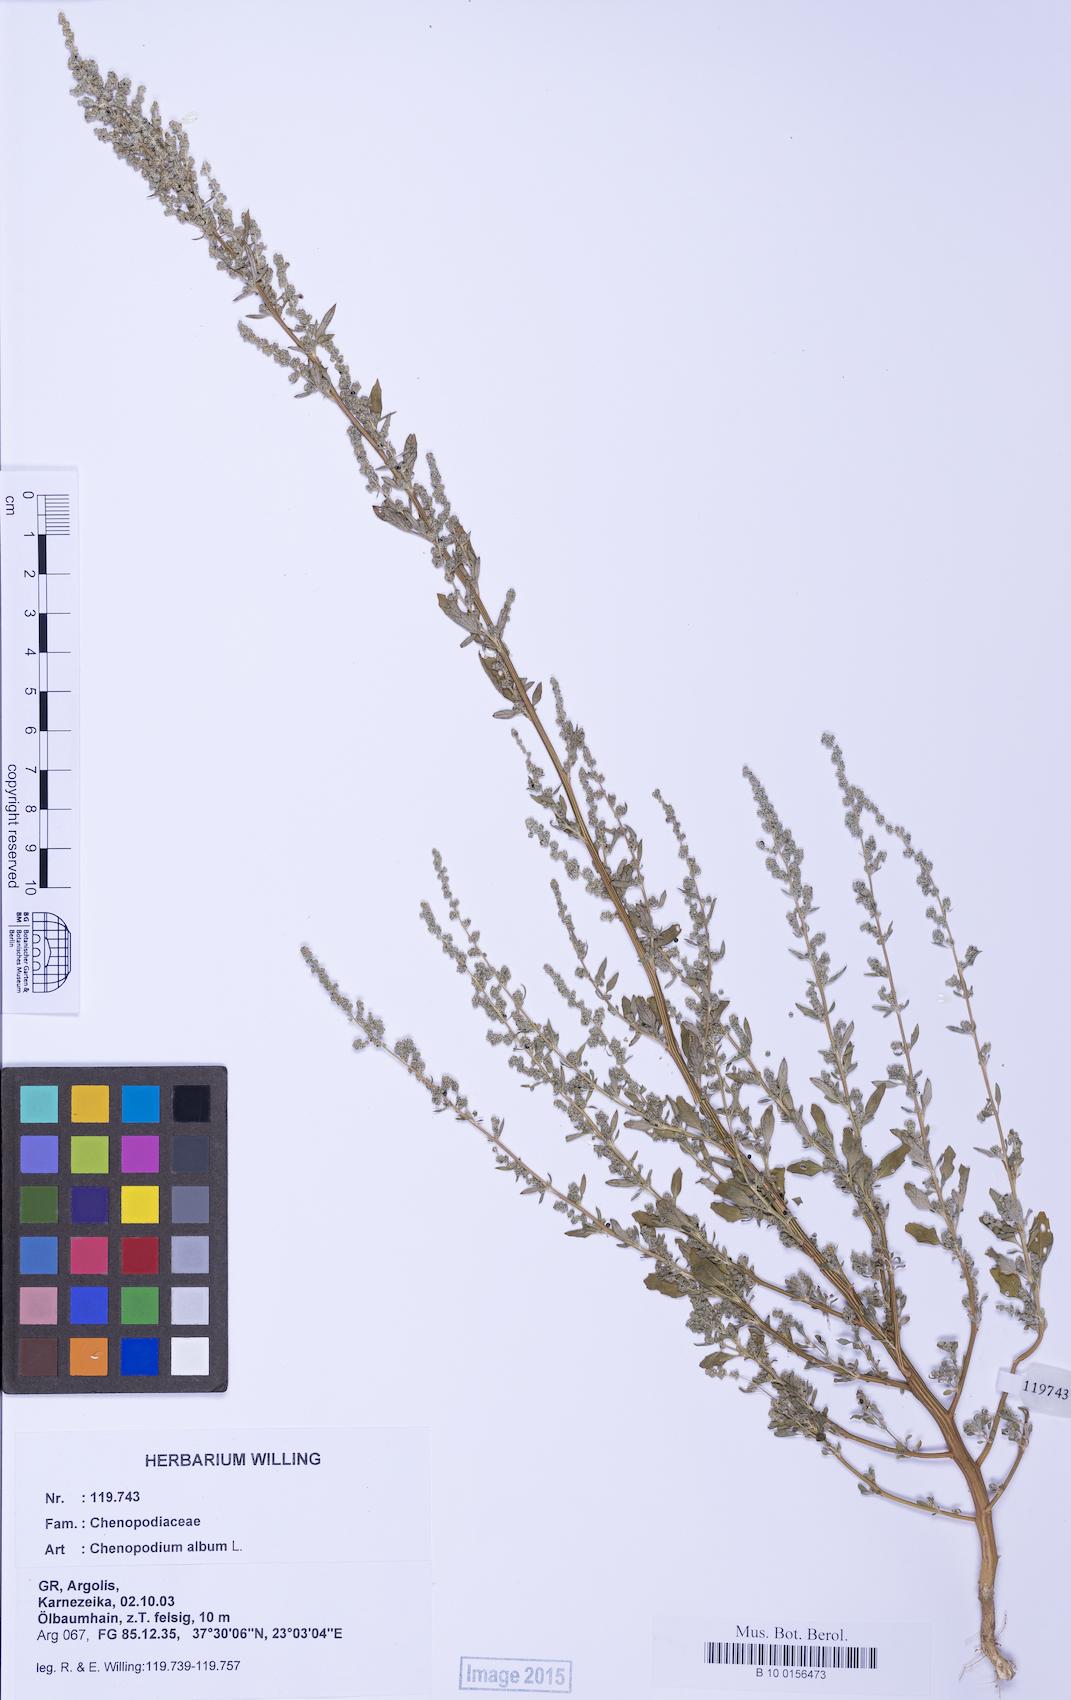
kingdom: Plantae
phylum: Tracheophyta
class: Magnoliopsida
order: Caryophyllales
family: Amaranthaceae
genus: Chenopodium
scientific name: Chenopodium album
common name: Fat-hen
